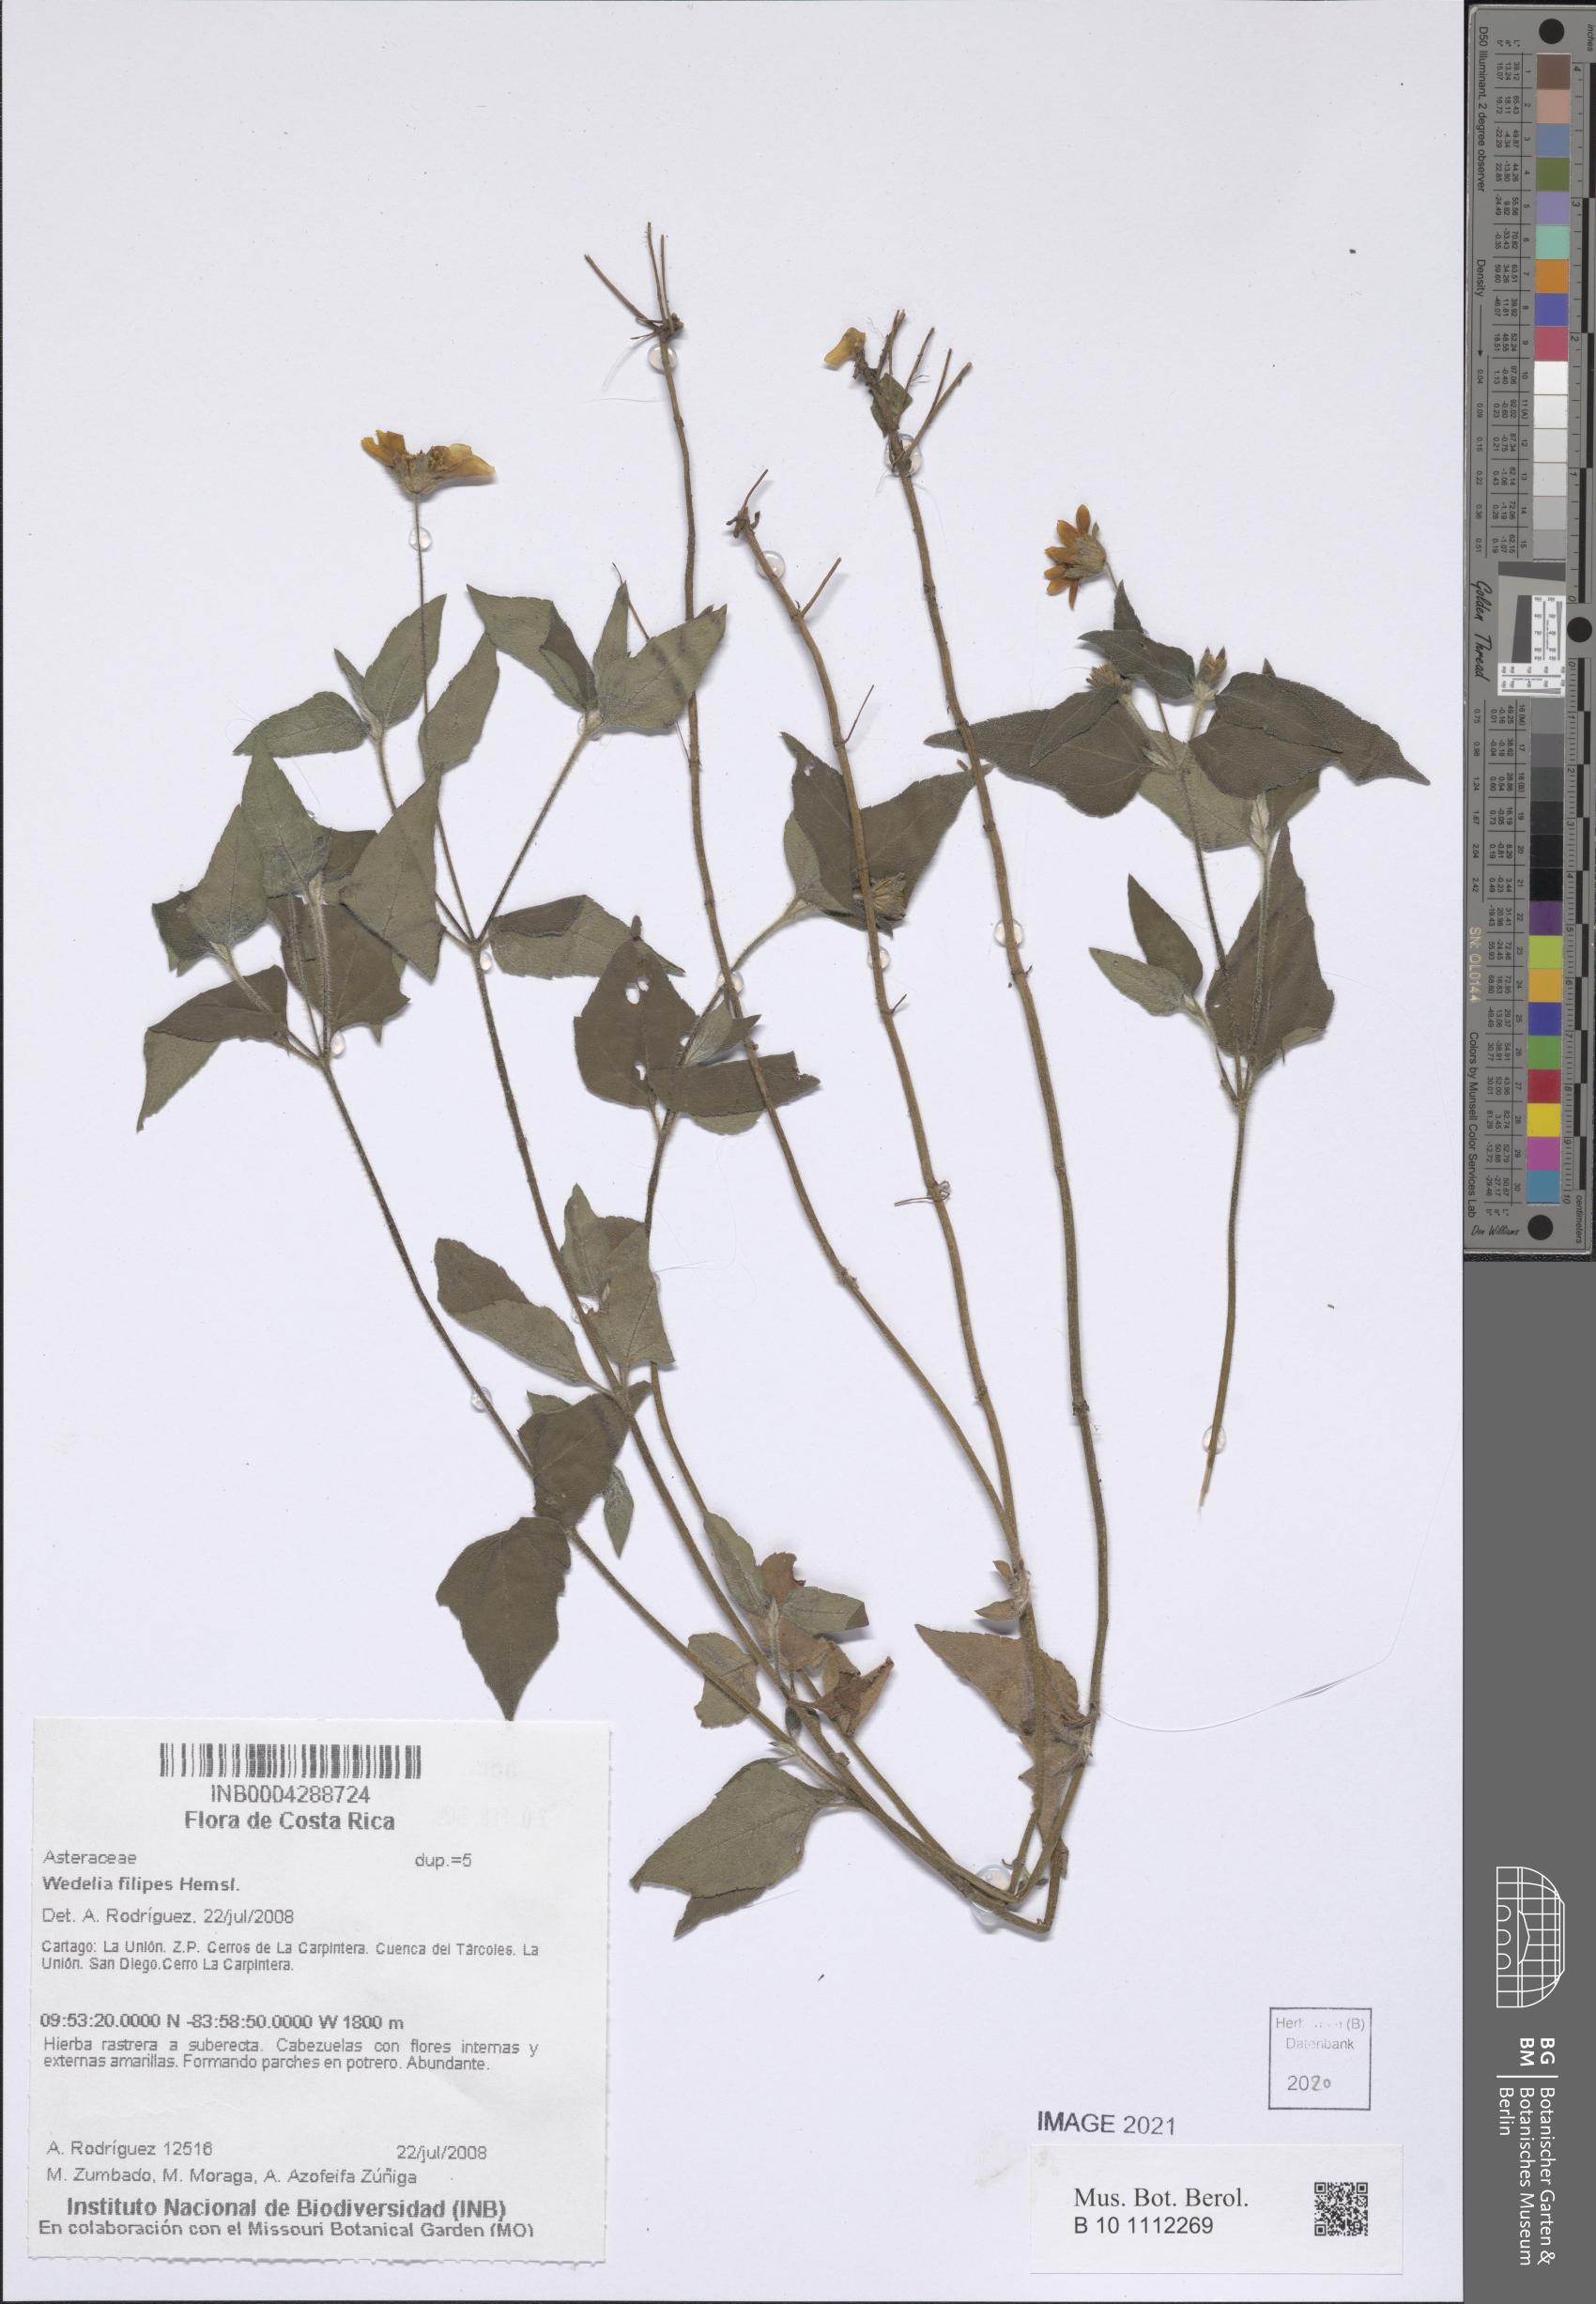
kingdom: Plantae
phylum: Tracheophyta
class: Magnoliopsida
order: Asterales
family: Asteraceae
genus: Wedelia
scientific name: Wedelia filipes
